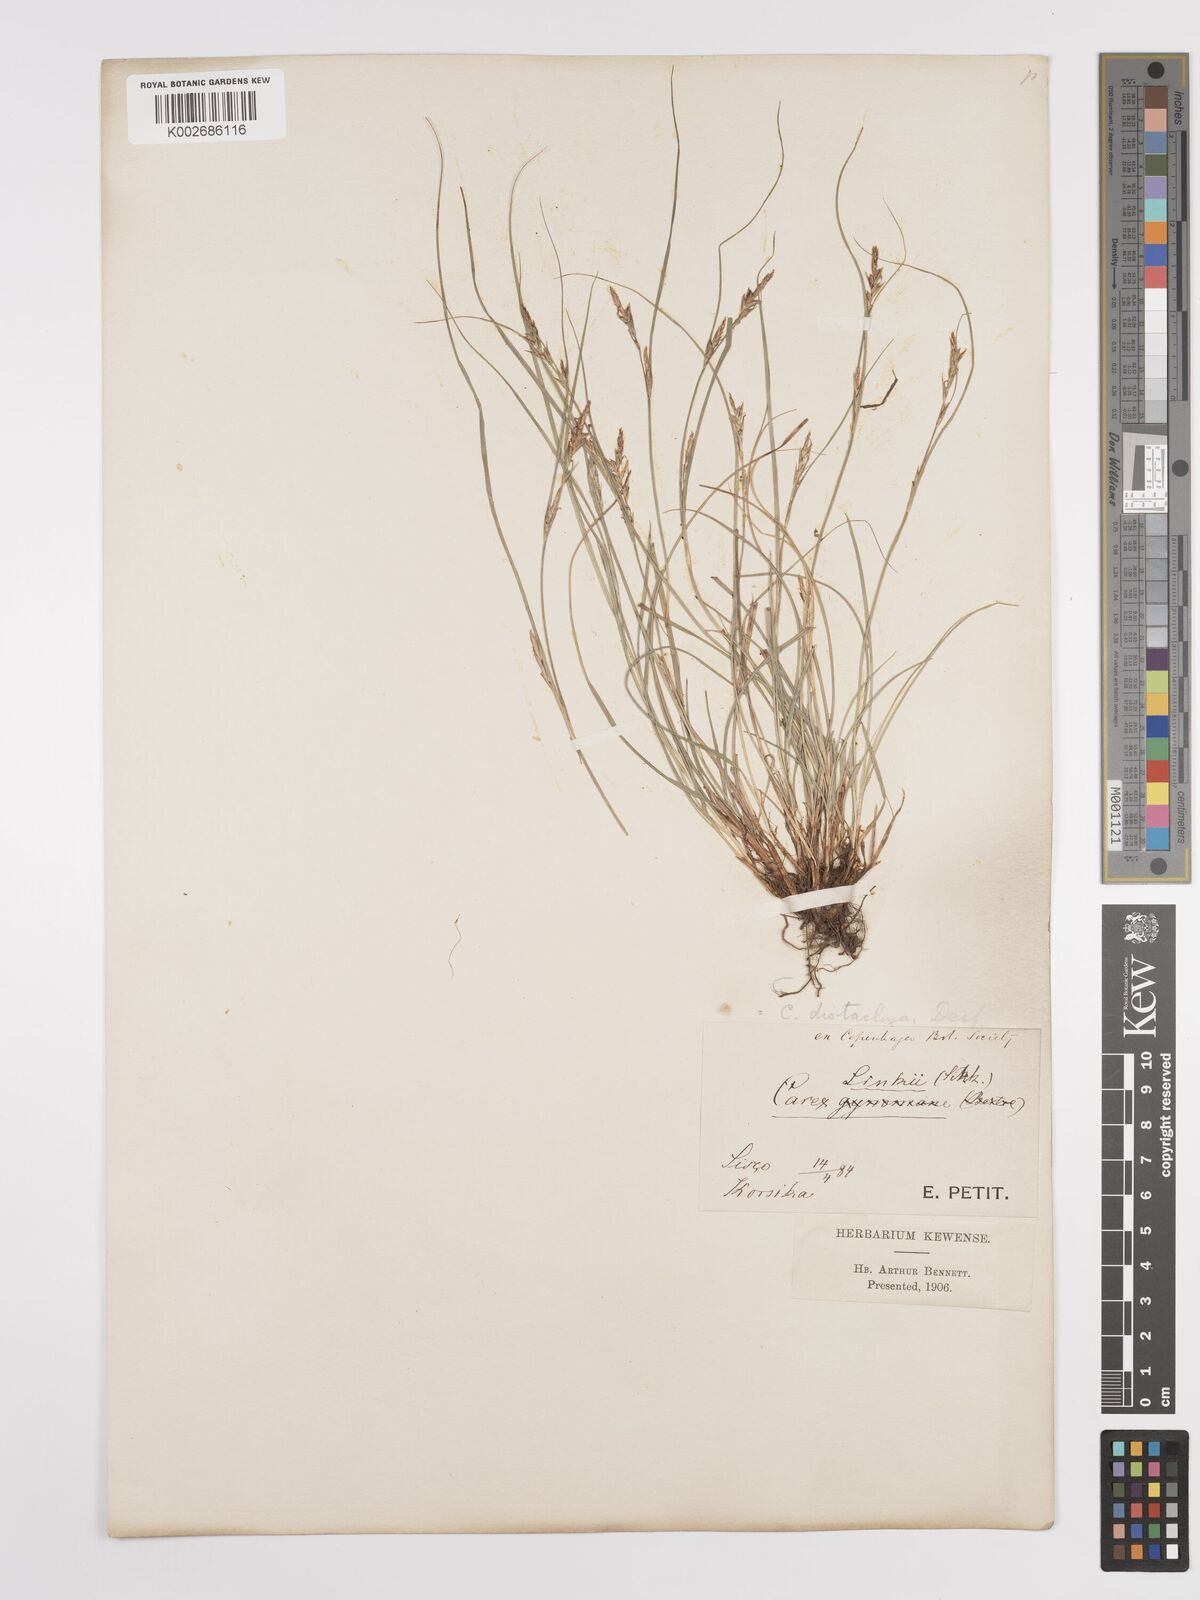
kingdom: Plantae
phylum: Tracheophyta
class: Liliopsida
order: Poales
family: Cyperaceae
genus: Carex
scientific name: Carex distachya
